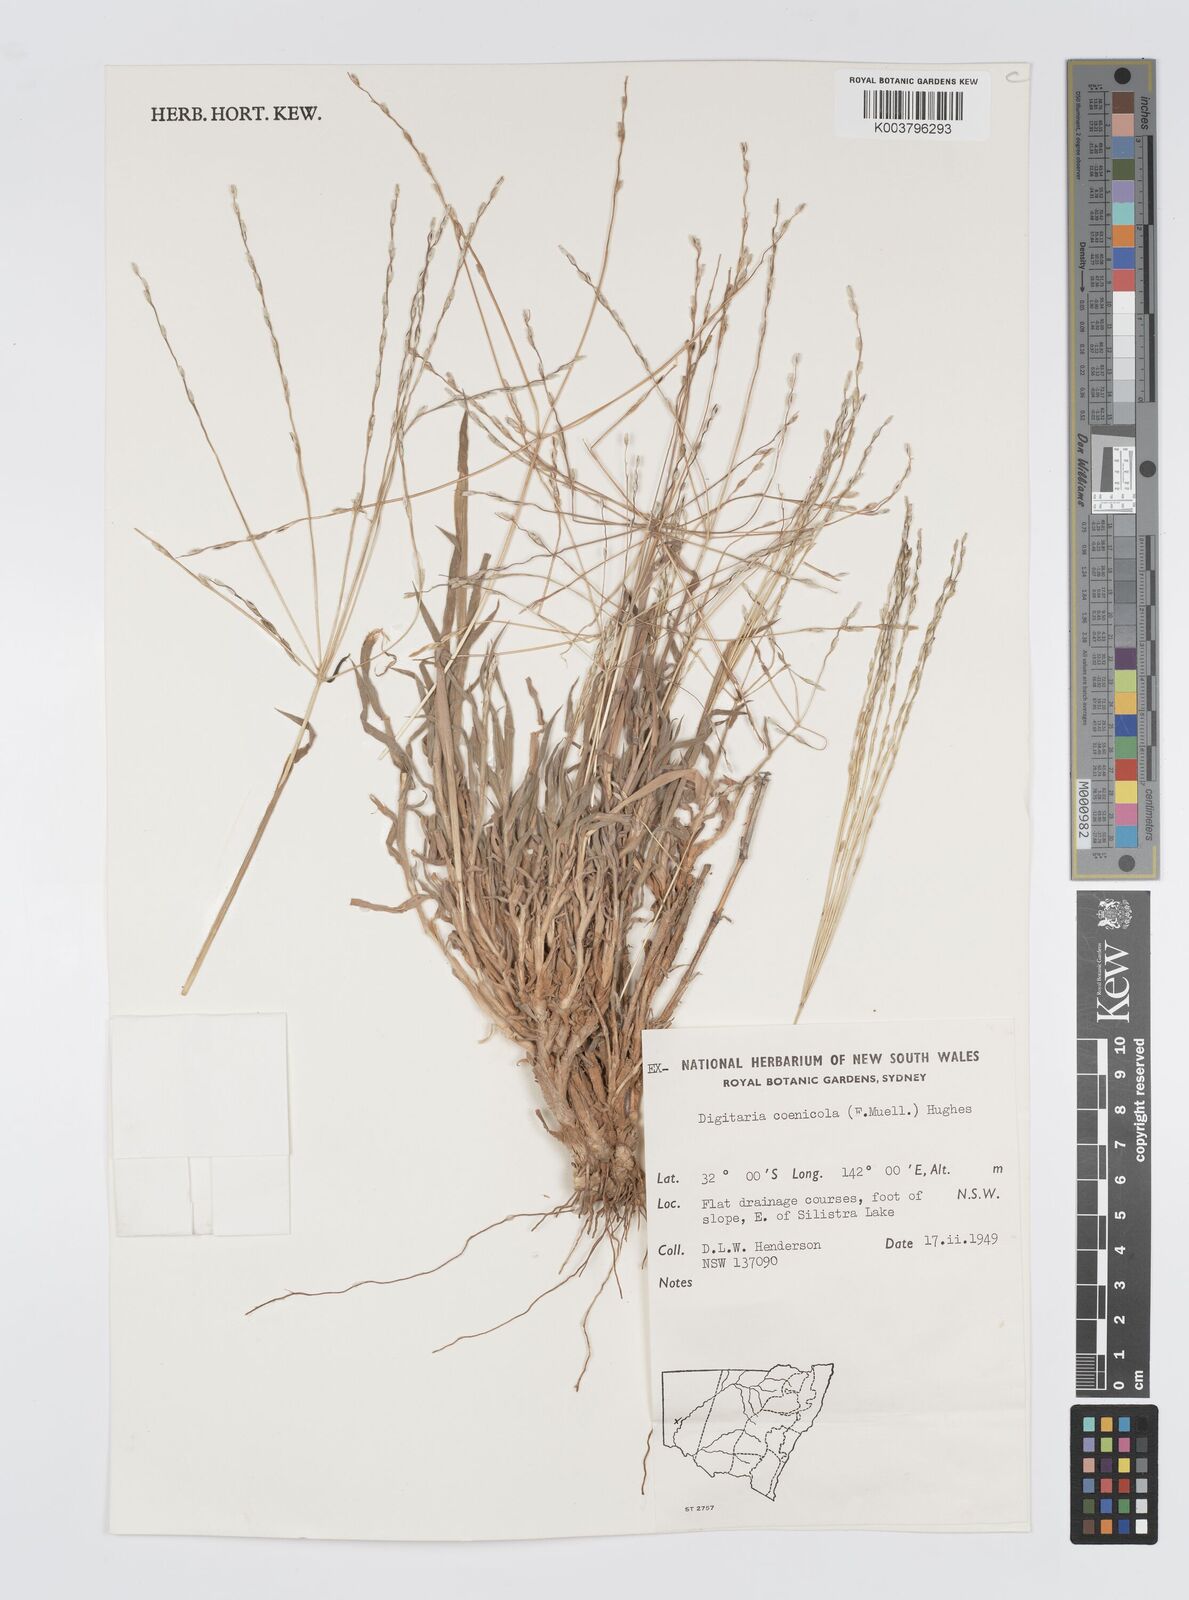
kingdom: Plantae
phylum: Tracheophyta
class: Liliopsida
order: Poales
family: Poaceae
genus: Digitaria
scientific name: Digitaria coenicola
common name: Kanta grass
